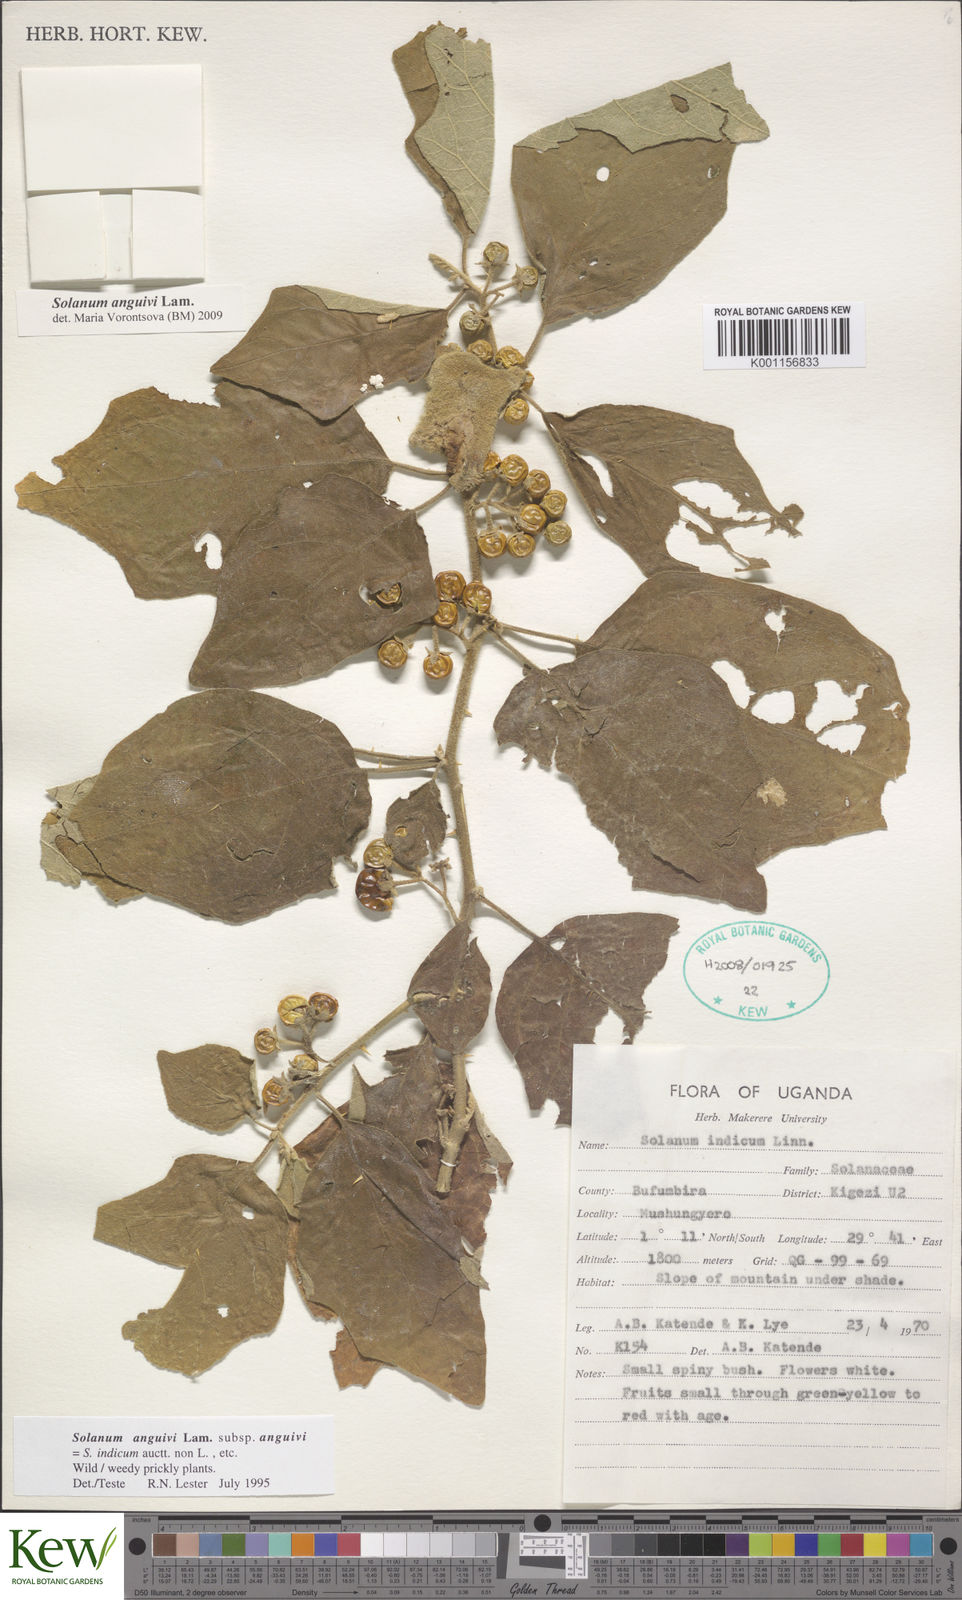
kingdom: Plantae
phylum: Tracheophyta
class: Magnoliopsida
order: Solanales
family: Solanaceae
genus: Solanum
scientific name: Solanum anguivi
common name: Forest bitterberry
